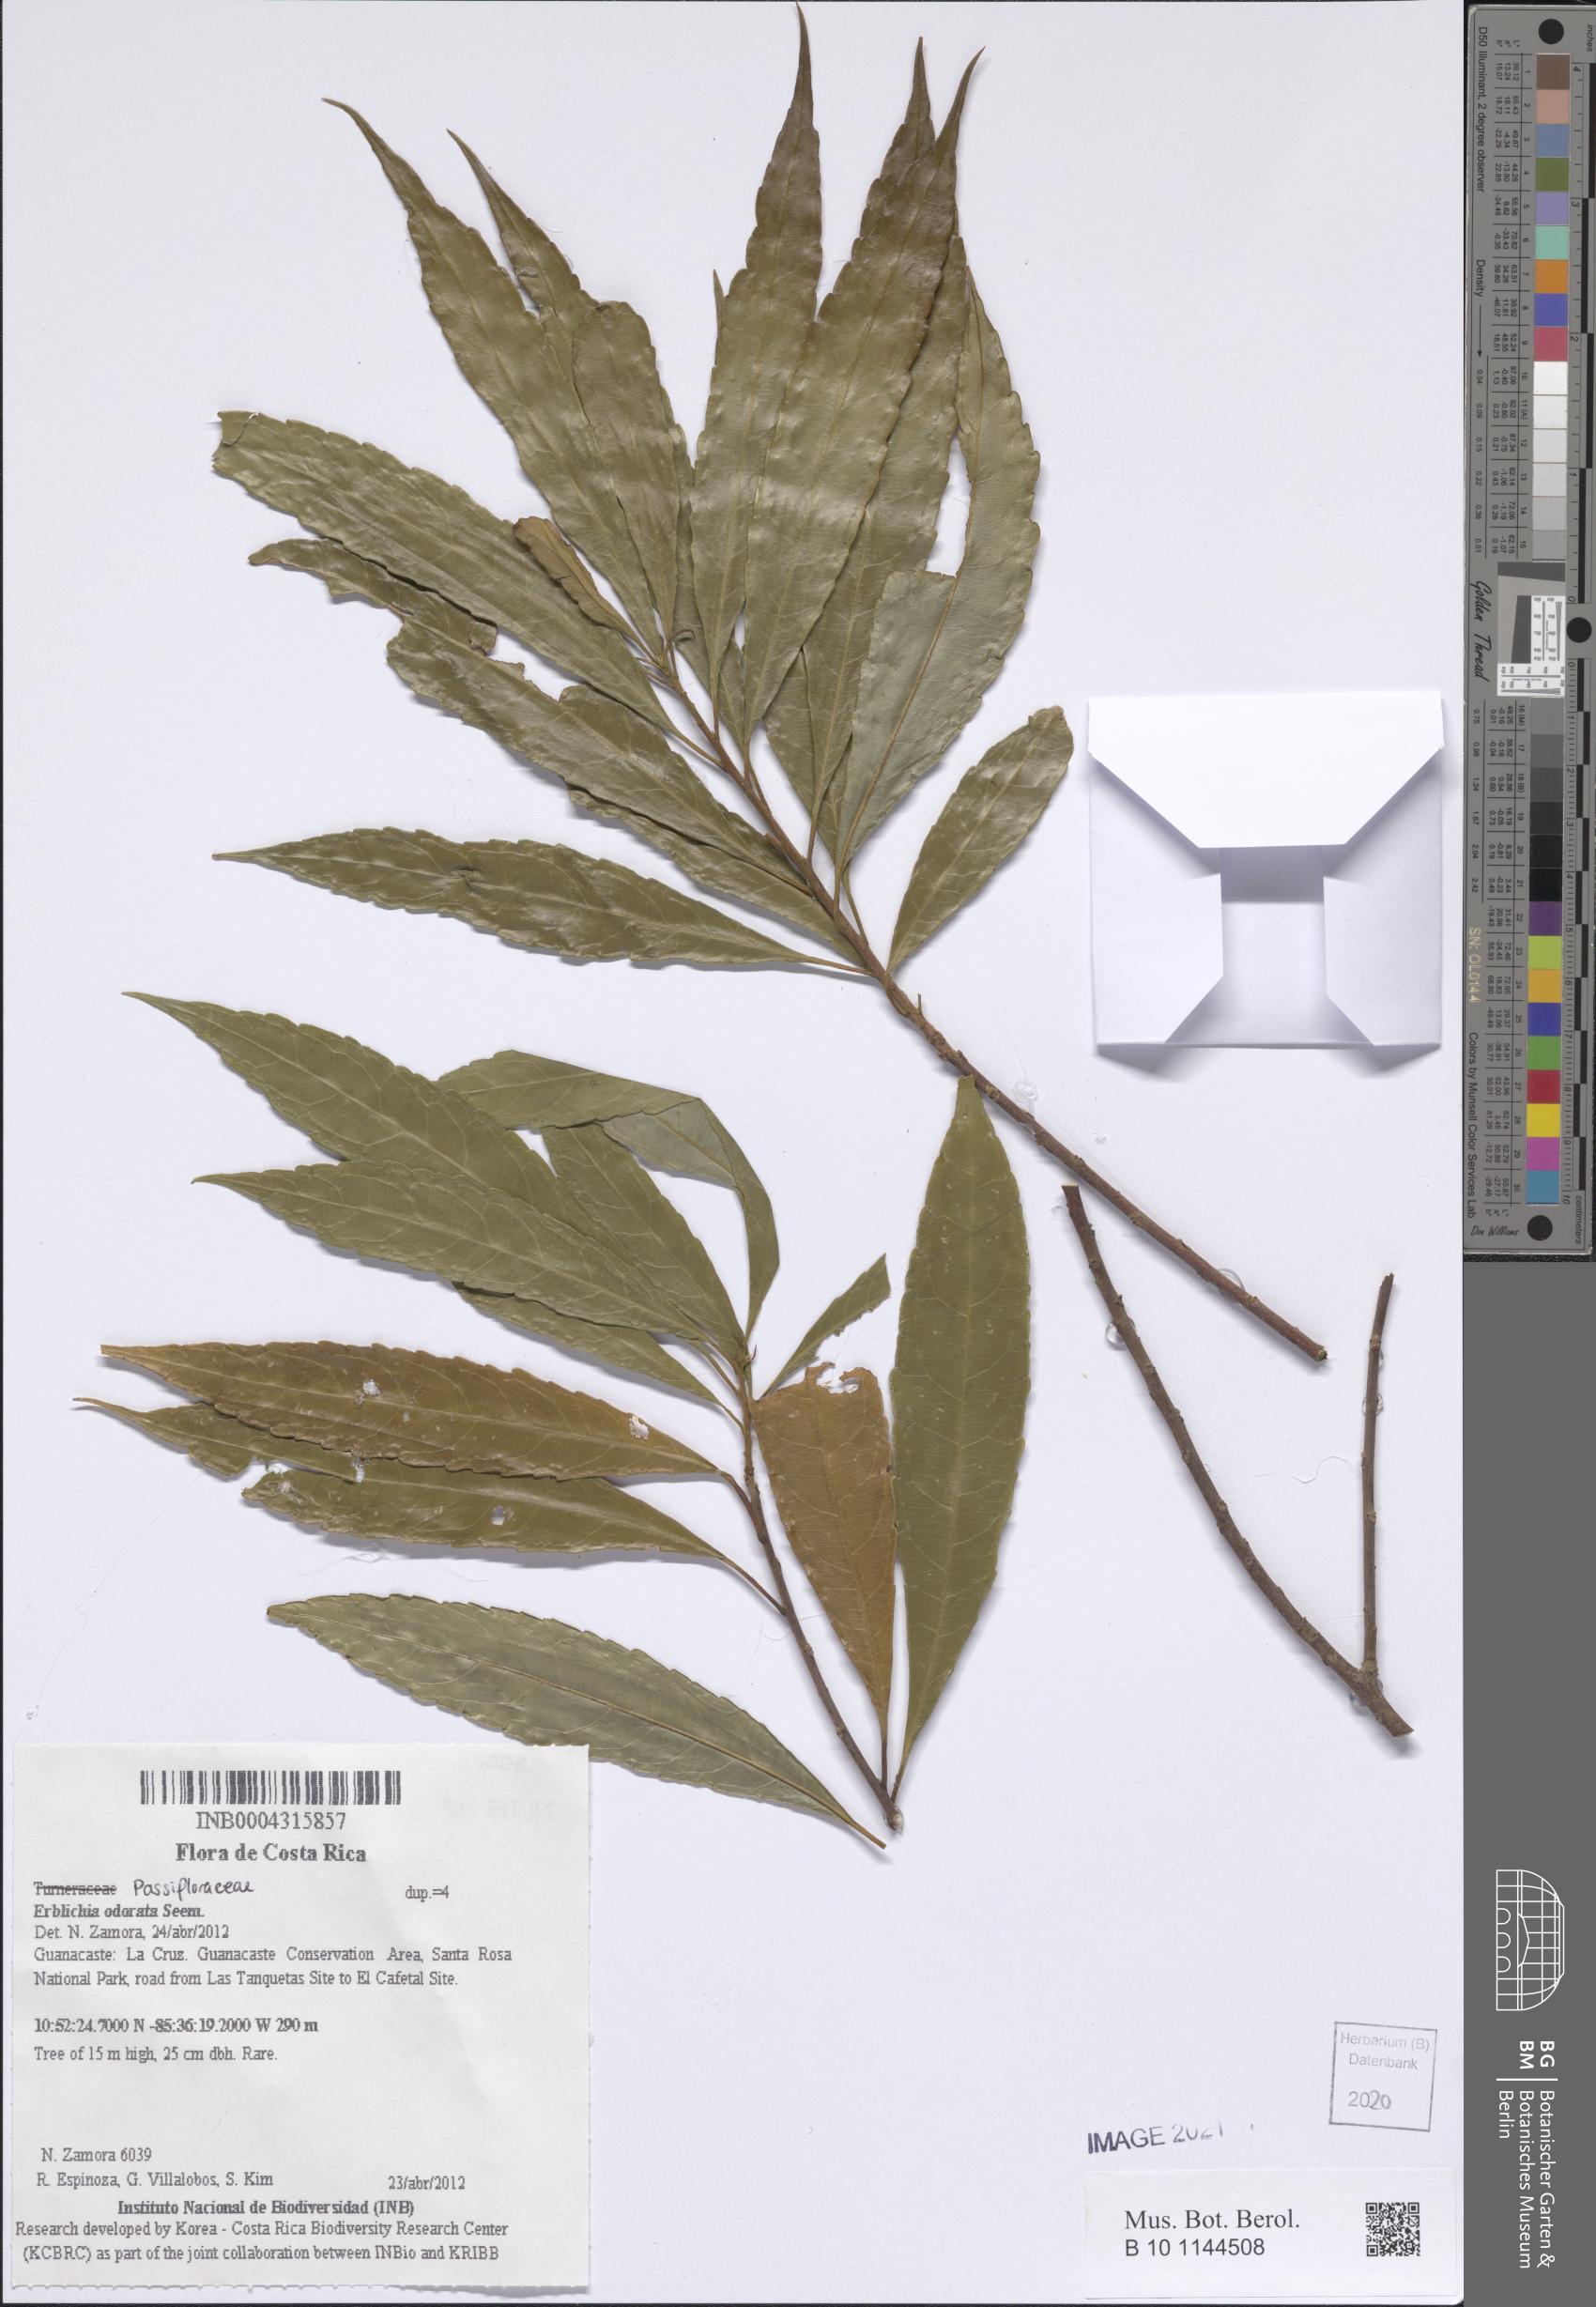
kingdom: Plantae
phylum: Tracheophyta
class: Magnoliopsida
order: Malpighiales
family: Turneraceae
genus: Erblichia
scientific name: Erblichia odorata
